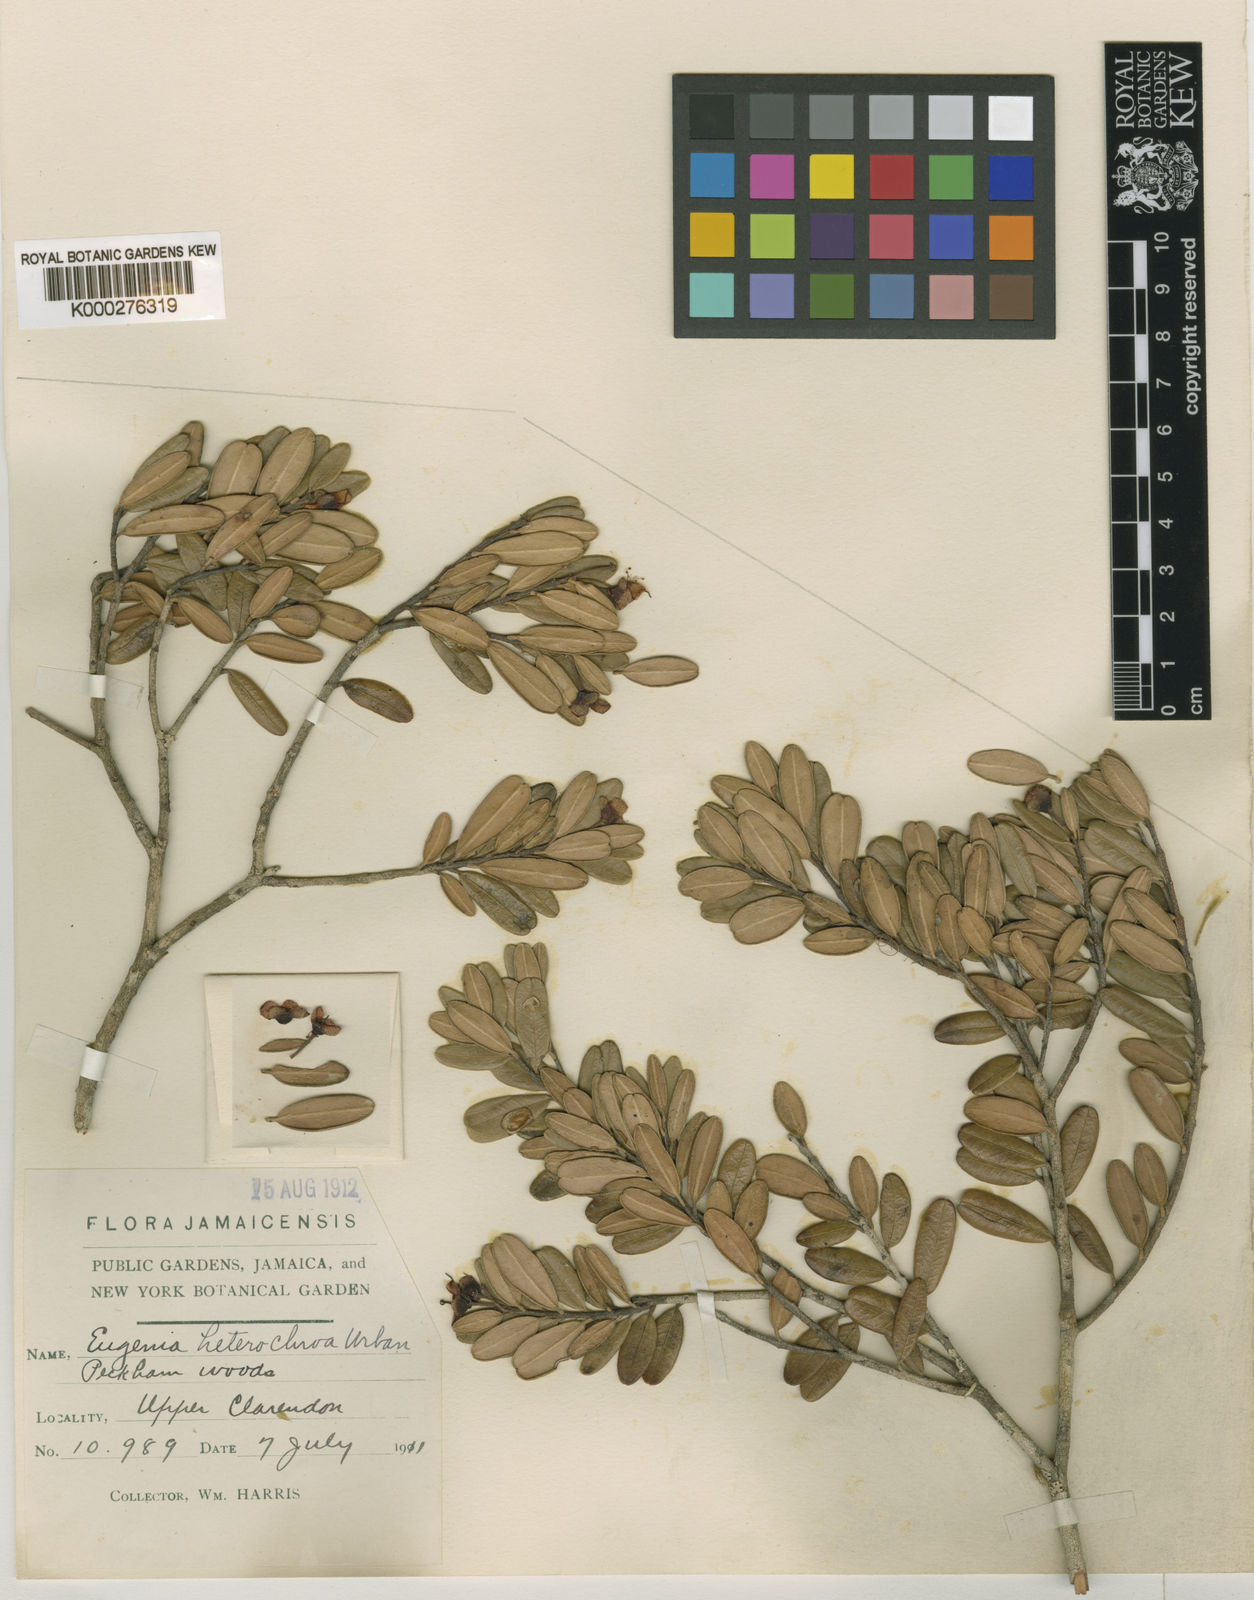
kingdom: Plantae
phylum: Tracheophyta
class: Magnoliopsida
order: Myrtales
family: Myrtaceae
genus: Eugenia
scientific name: Eugenia heterochroa
